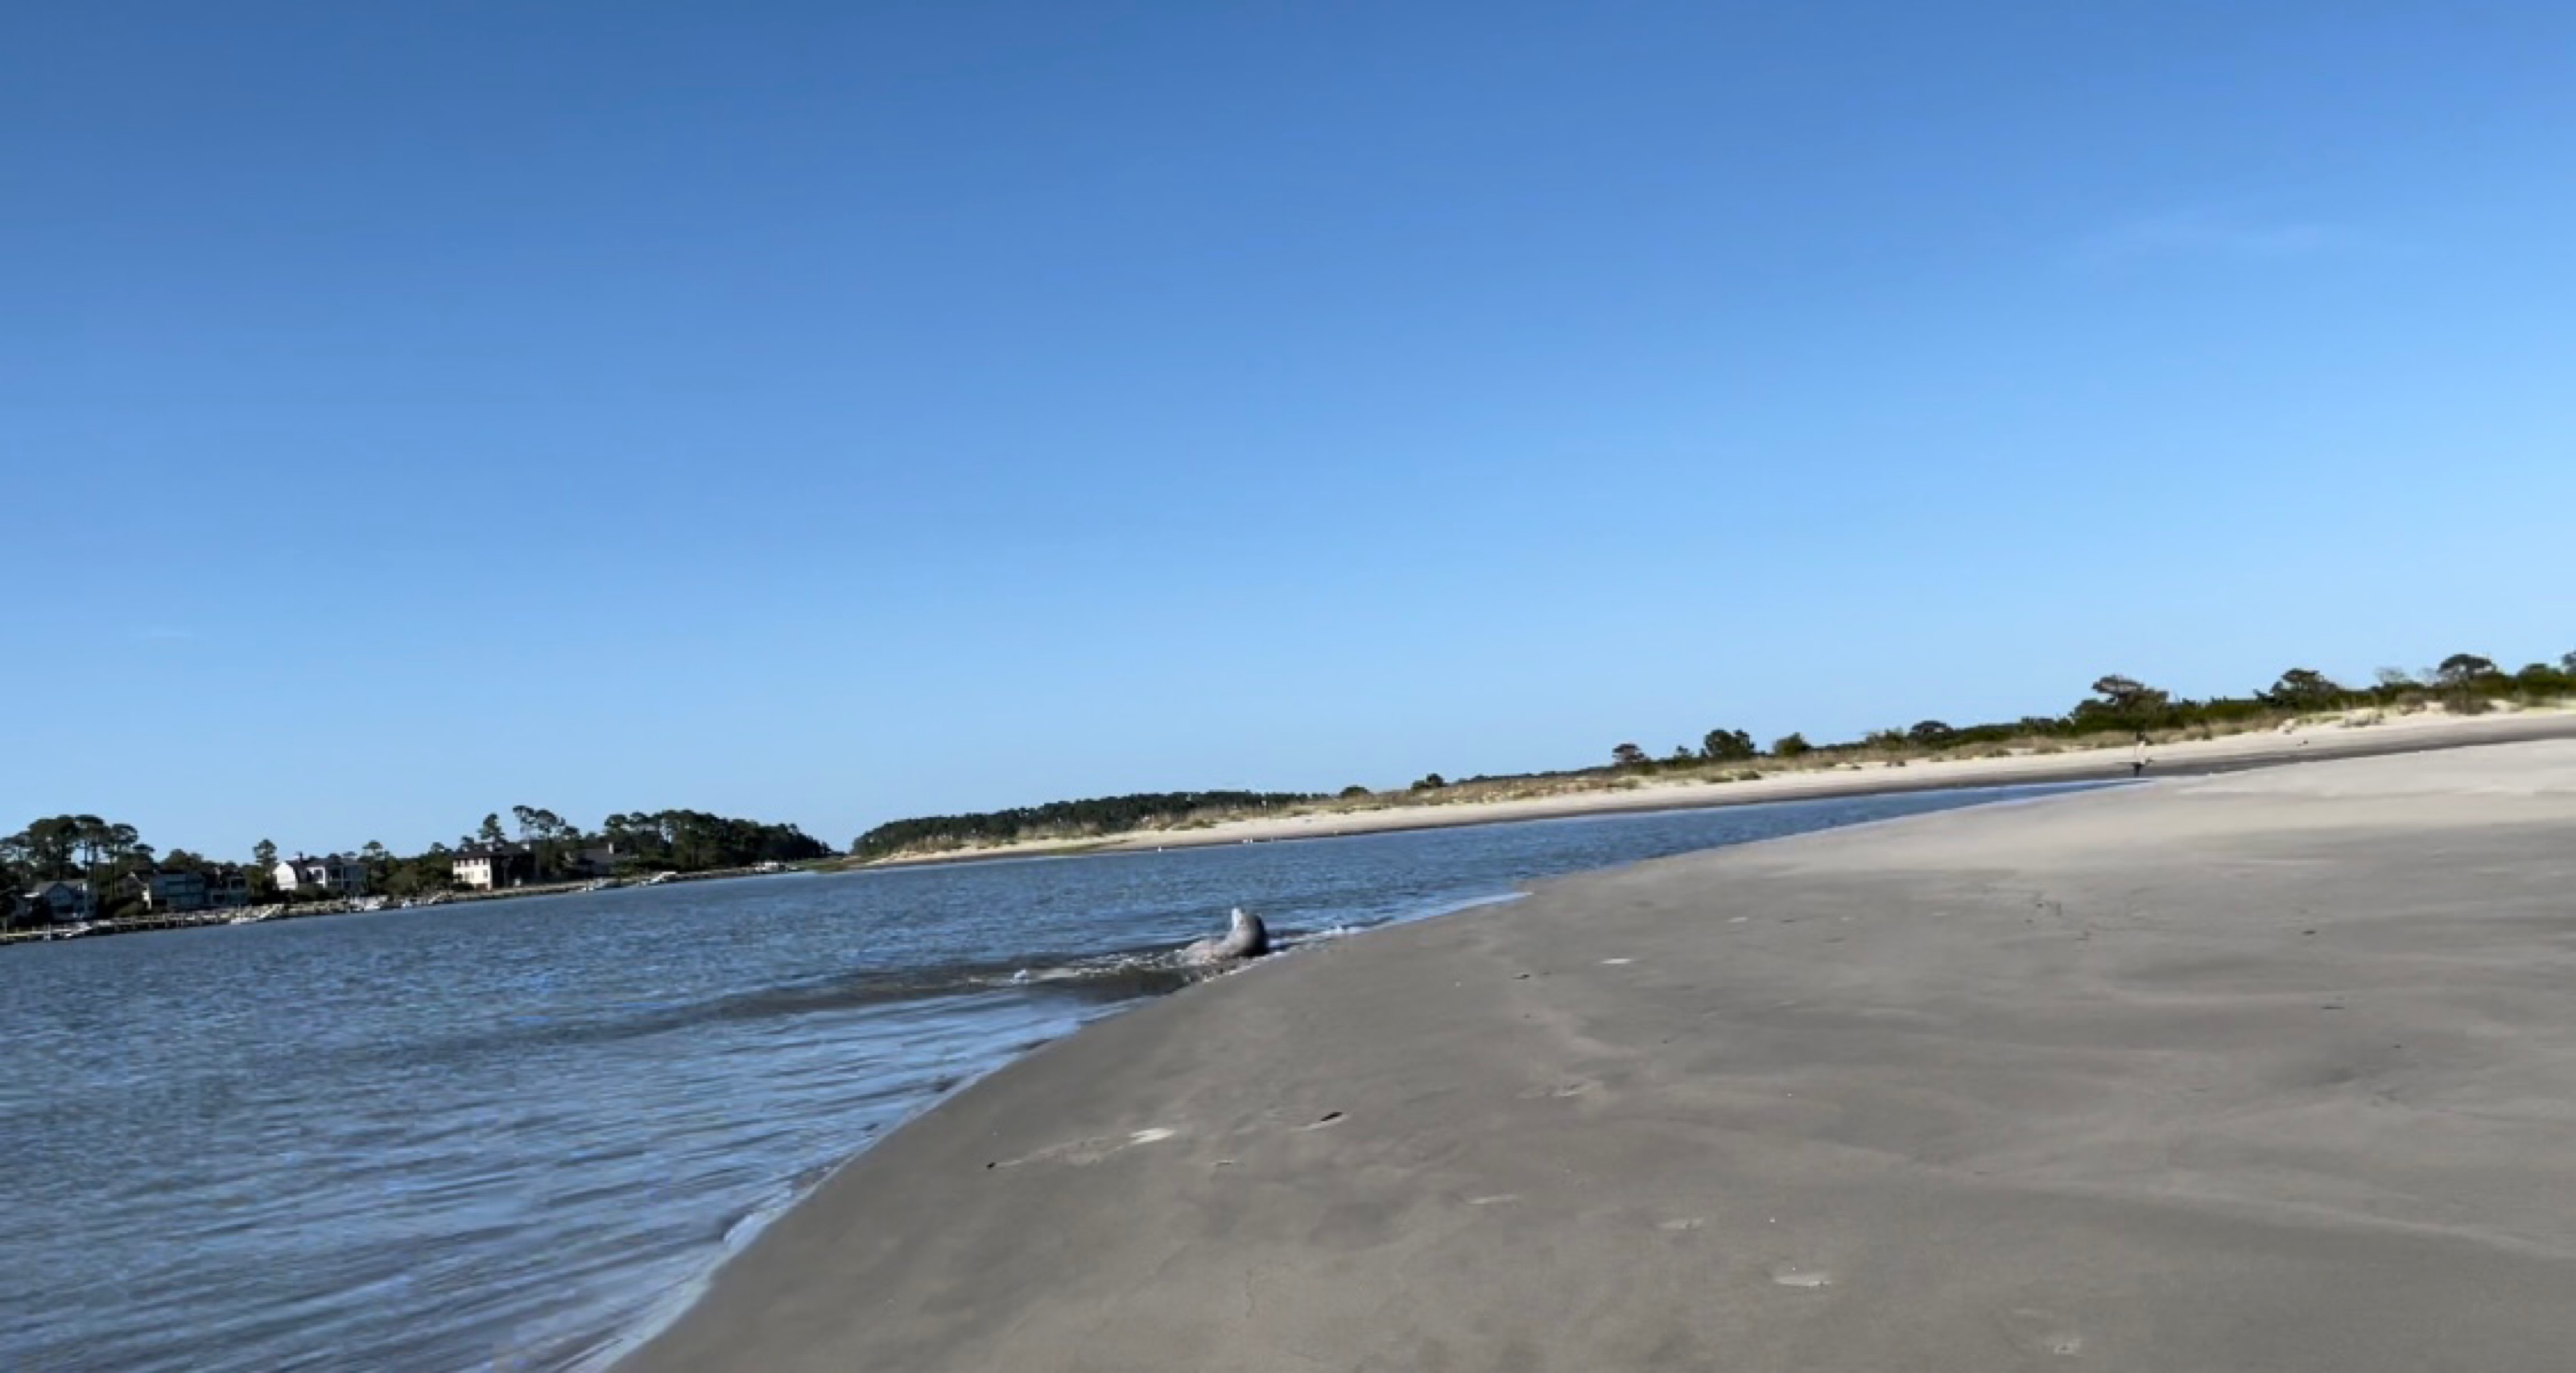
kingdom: Animalia
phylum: Chordata
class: Mammalia
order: Cetacea
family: Delphinidae
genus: Tursiops
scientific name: Tursiops truncatus
